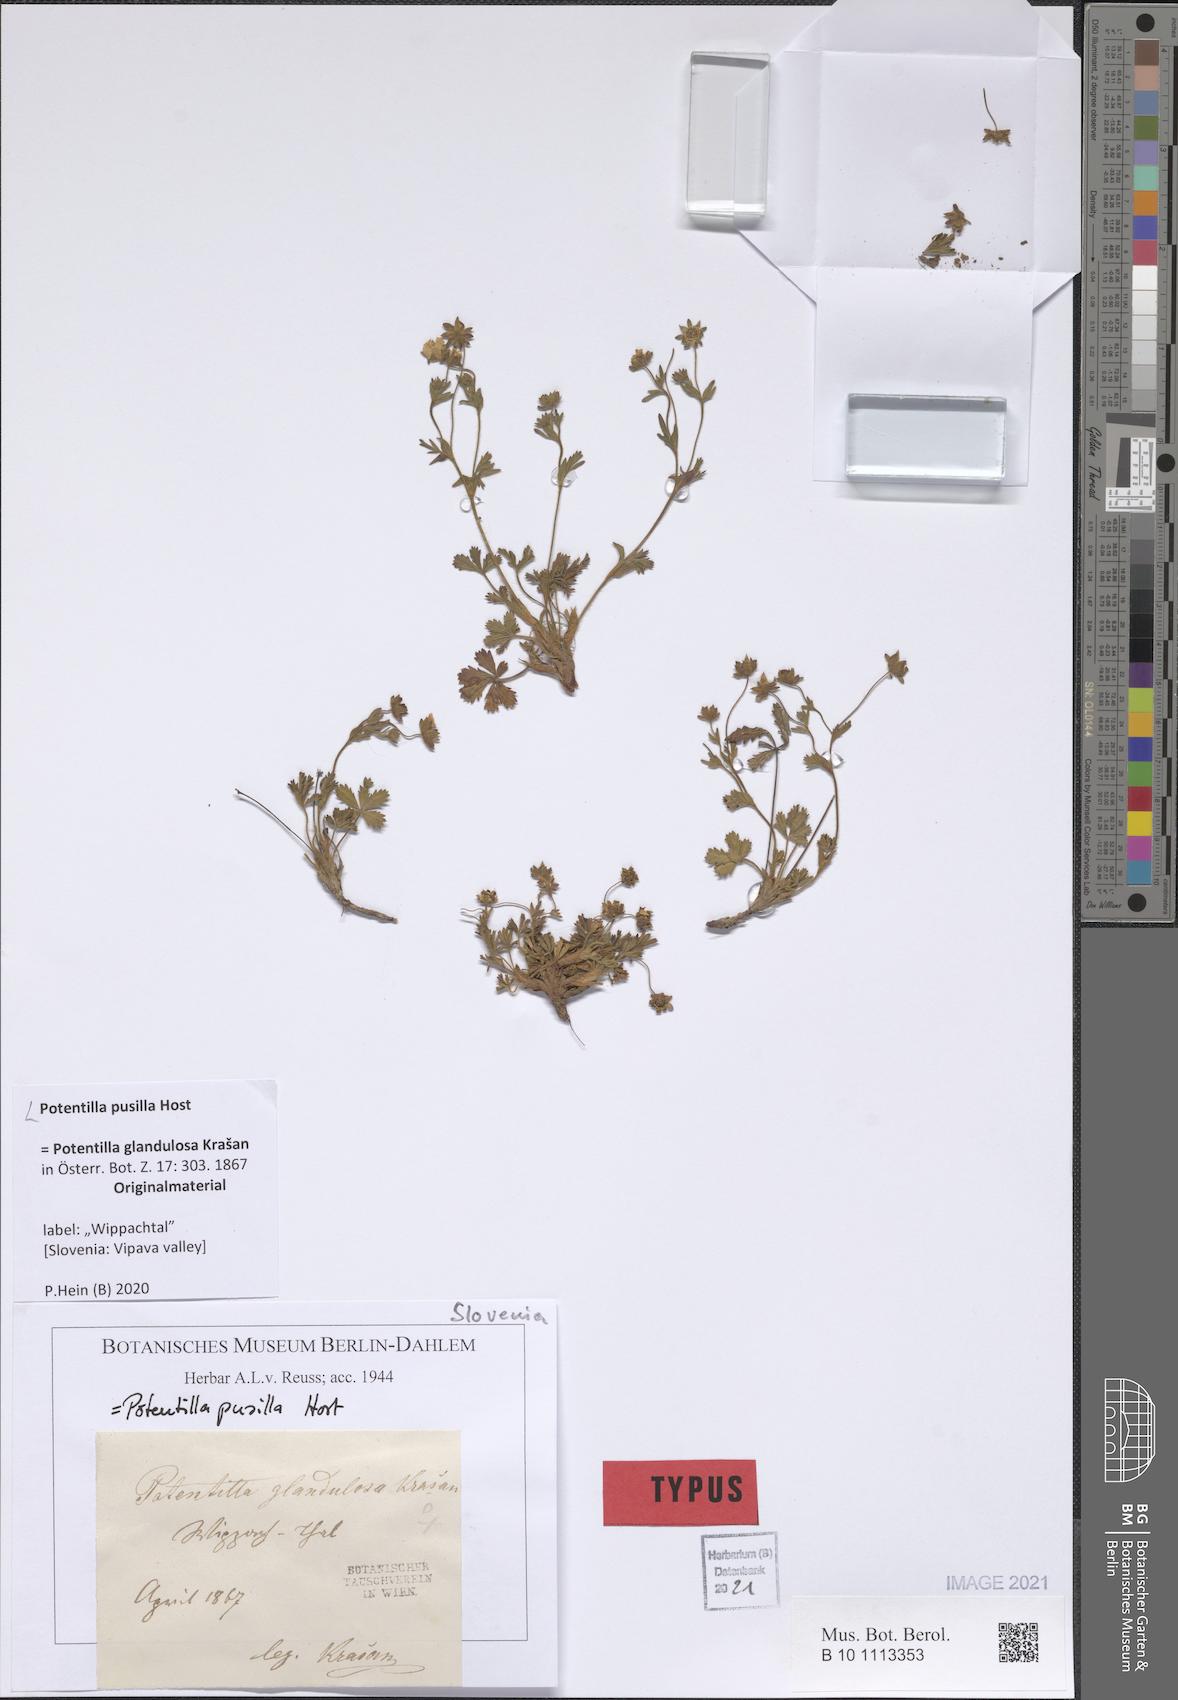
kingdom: Plantae
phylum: Tracheophyta
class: Magnoliopsida
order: Rosales
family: Rosaceae
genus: Potentilla
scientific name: Potentilla pusilla
